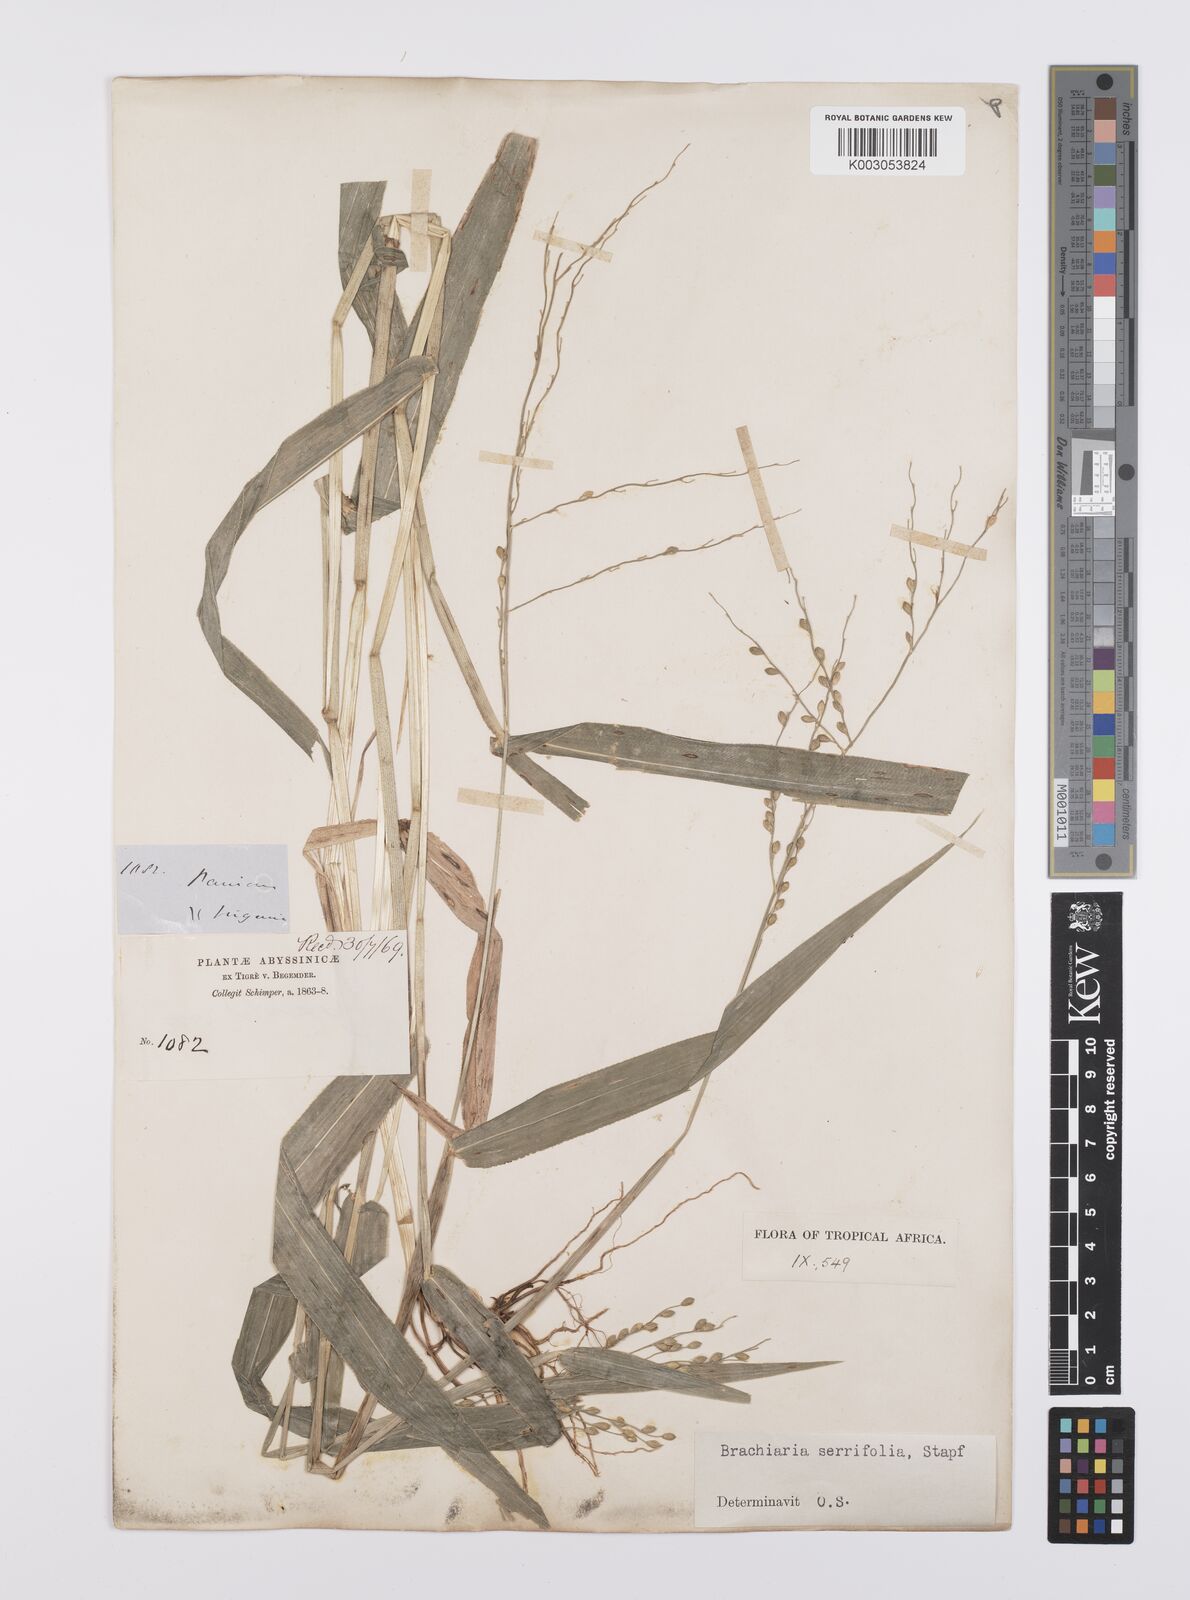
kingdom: Plantae
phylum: Tracheophyta
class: Liliopsida
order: Poales
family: Poaceae
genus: Urochloa
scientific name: Urochloa serrifolia
